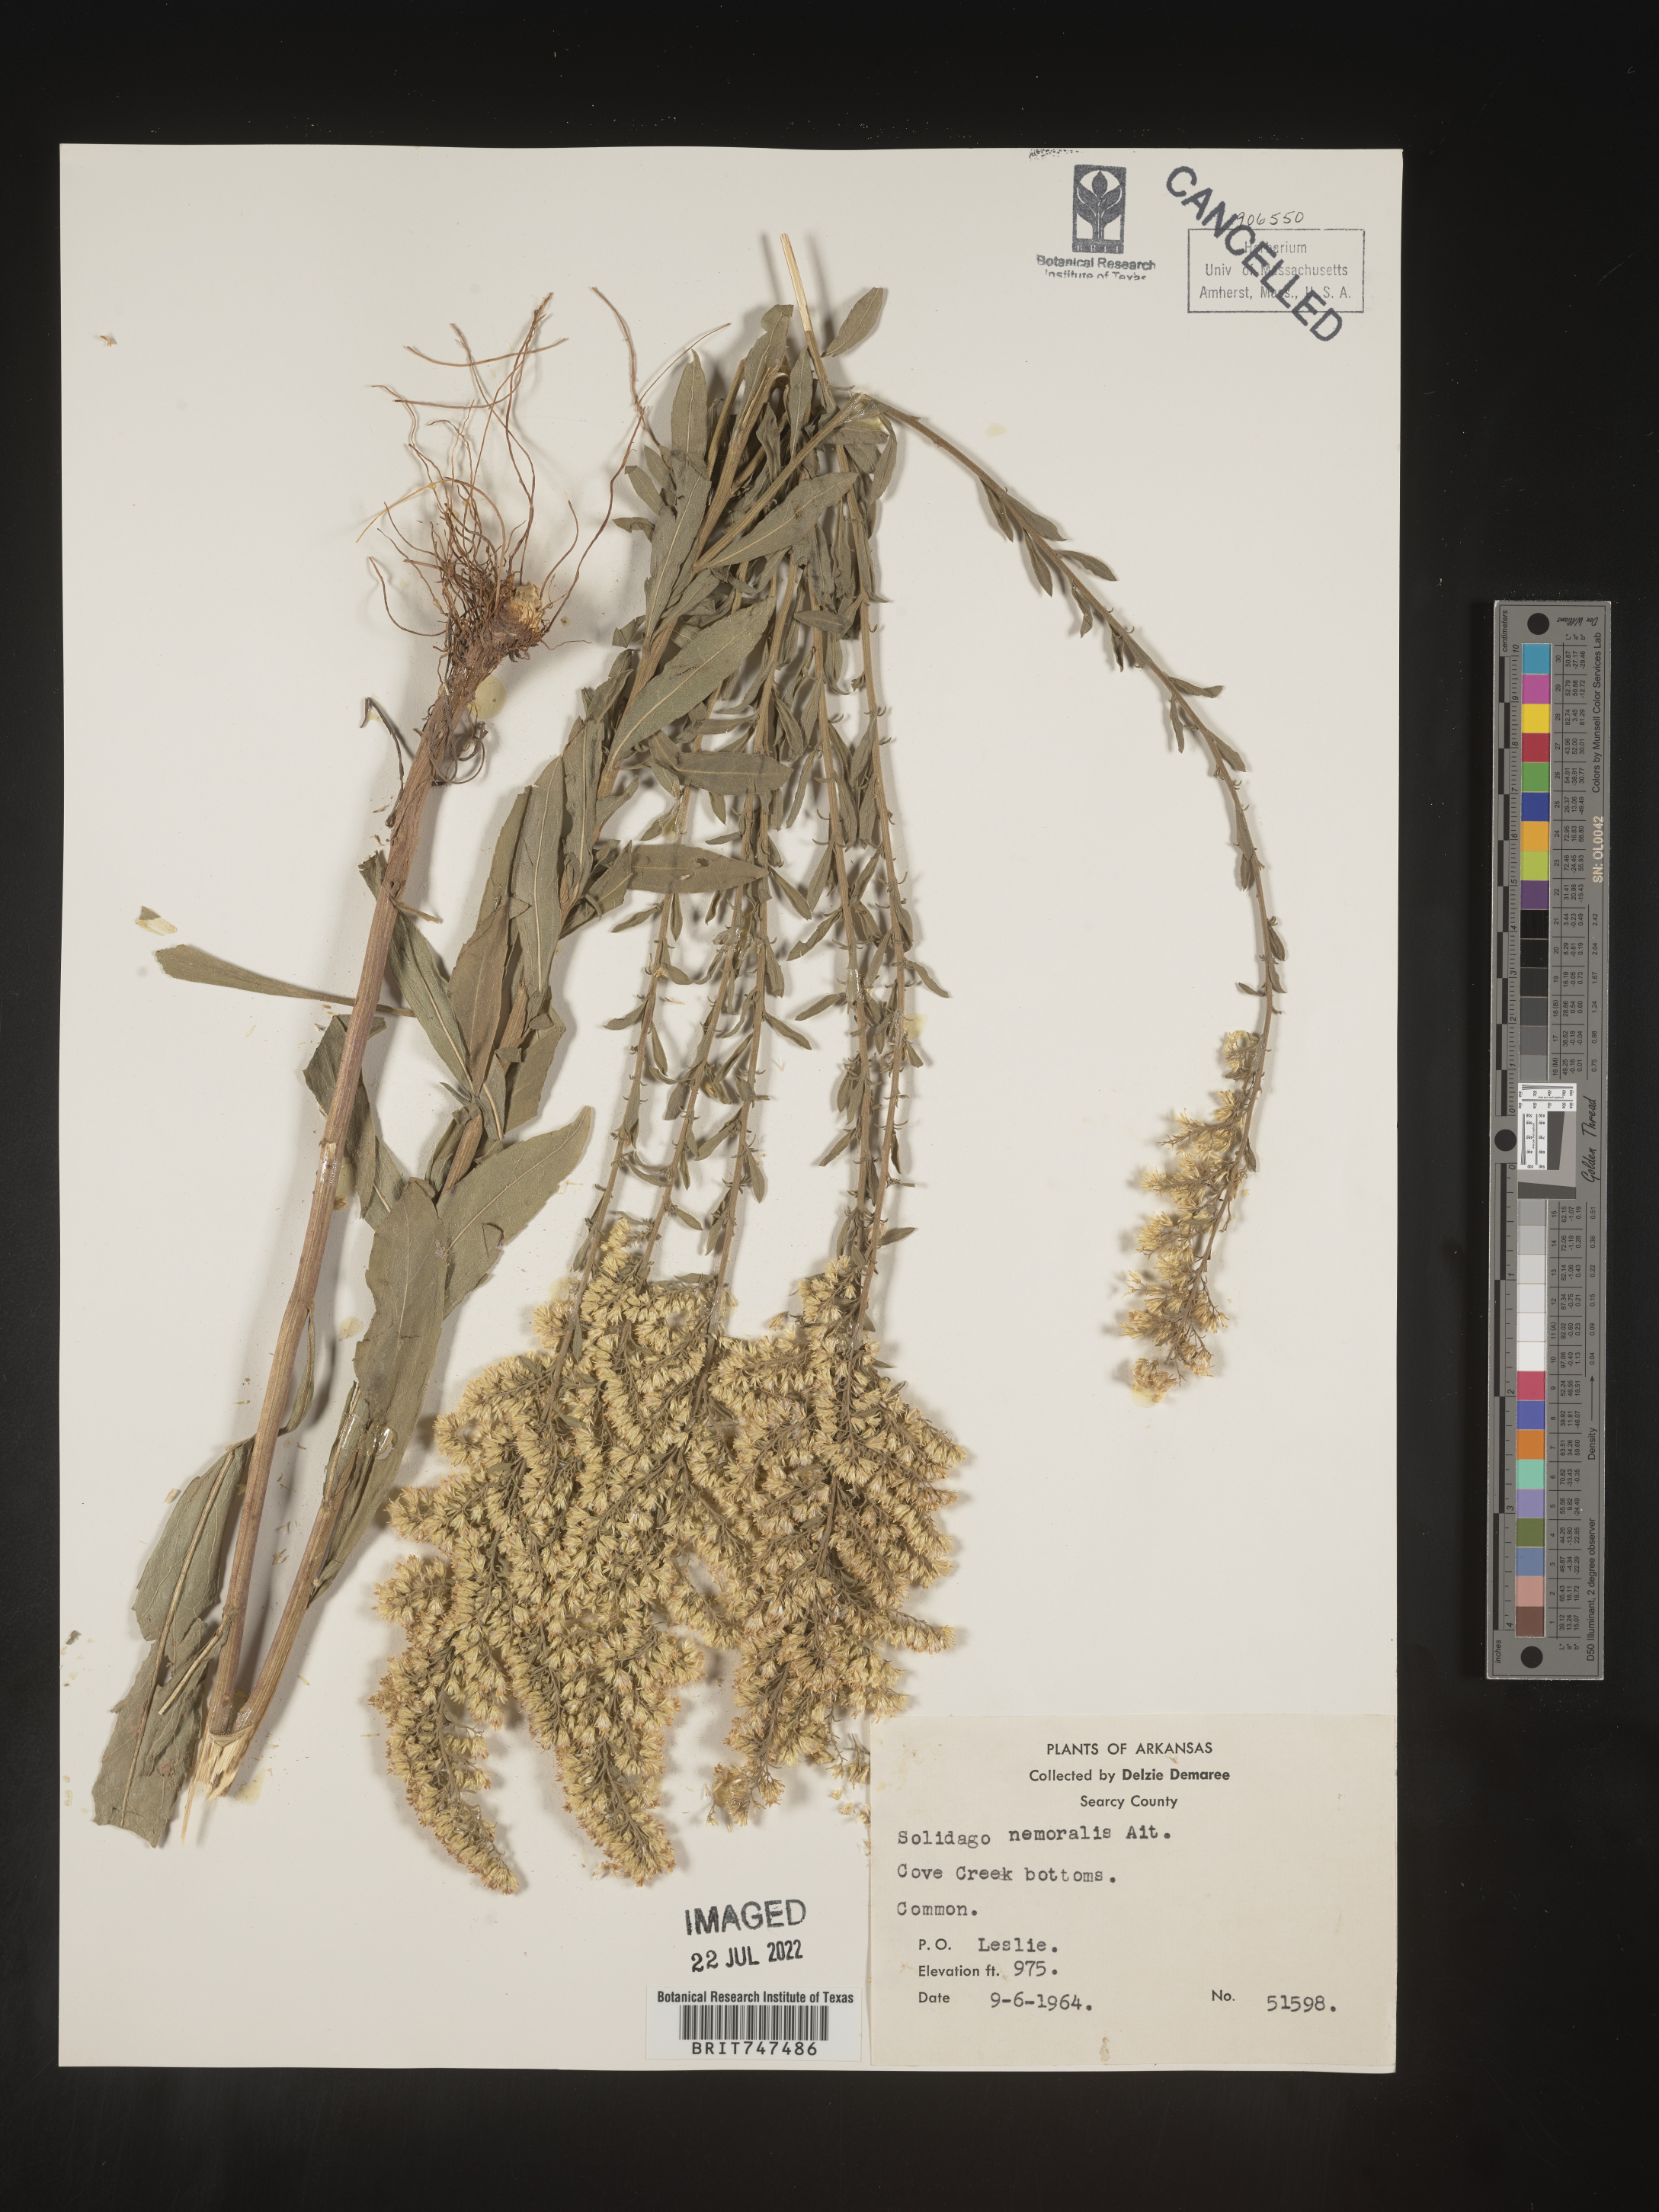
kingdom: Plantae
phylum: Tracheophyta
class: Magnoliopsida
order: Asterales
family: Asteraceae
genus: Solidago
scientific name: Solidago nemoralis
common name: Grey goldenrod
